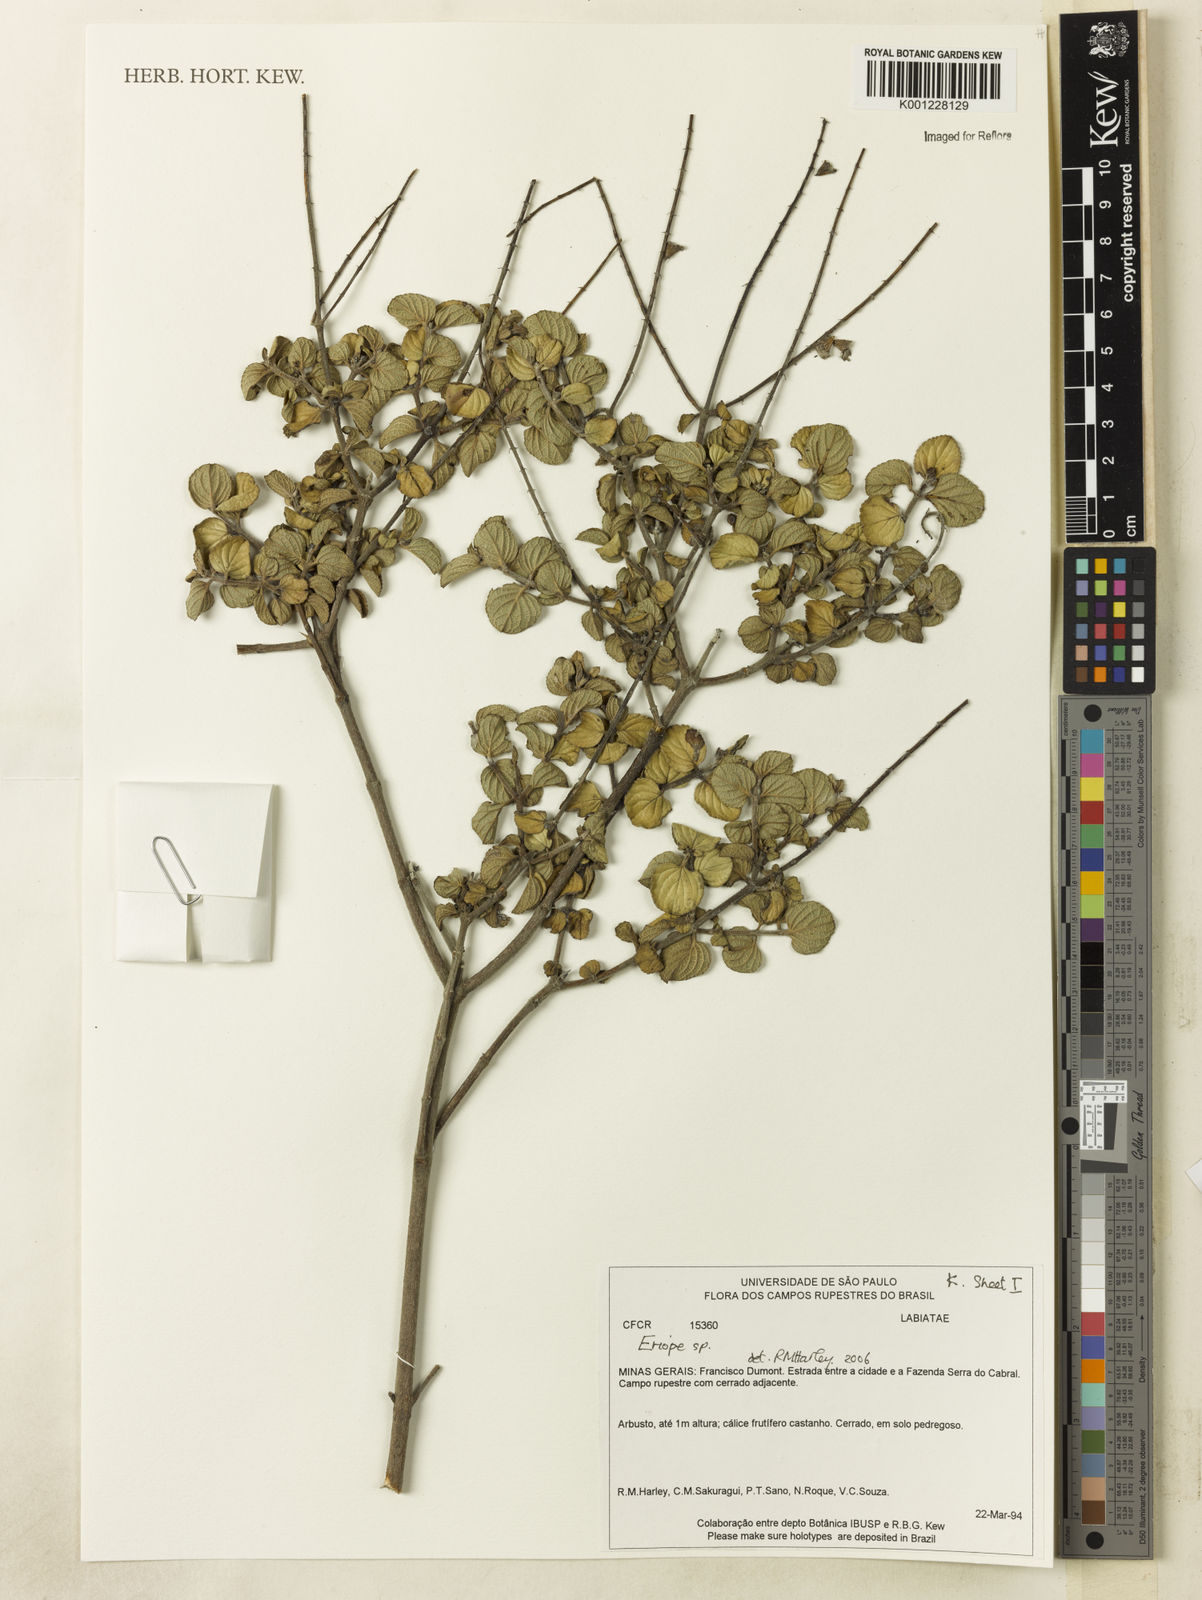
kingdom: Plantae
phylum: Tracheophyta
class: Magnoliopsida
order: Lamiales
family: Lamiaceae
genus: Eriope
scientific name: Eriope
